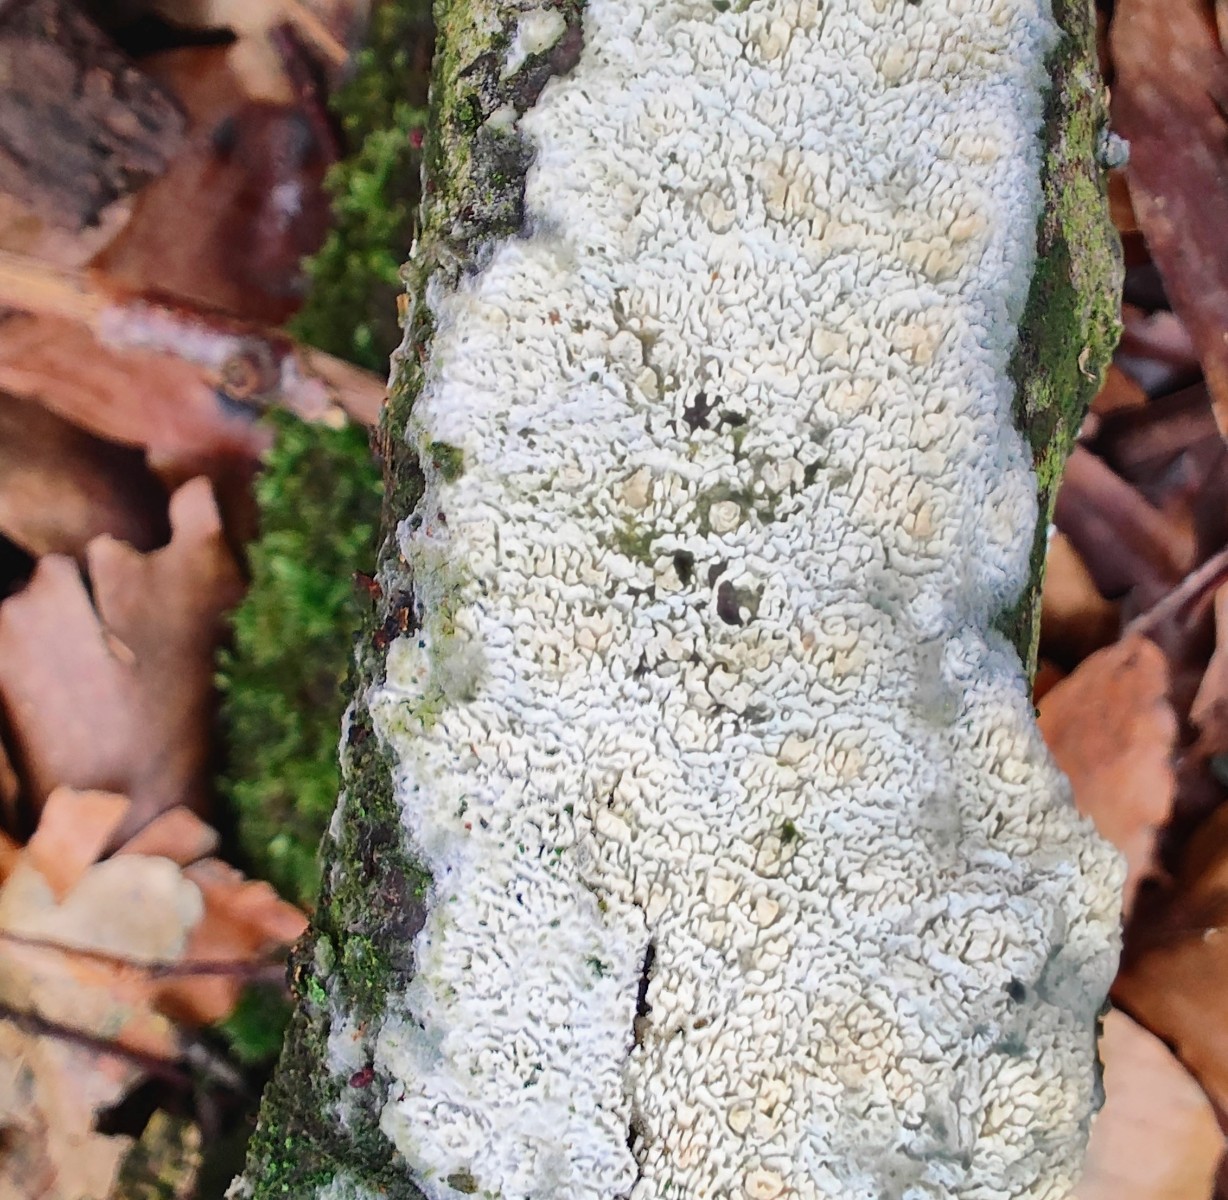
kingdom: Fungi
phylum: Basidiomycota
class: Agaricomycetes
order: Hymenochaetales
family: Schizoporaceae
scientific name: Schizoporaceae
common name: tandsvampfamilien
